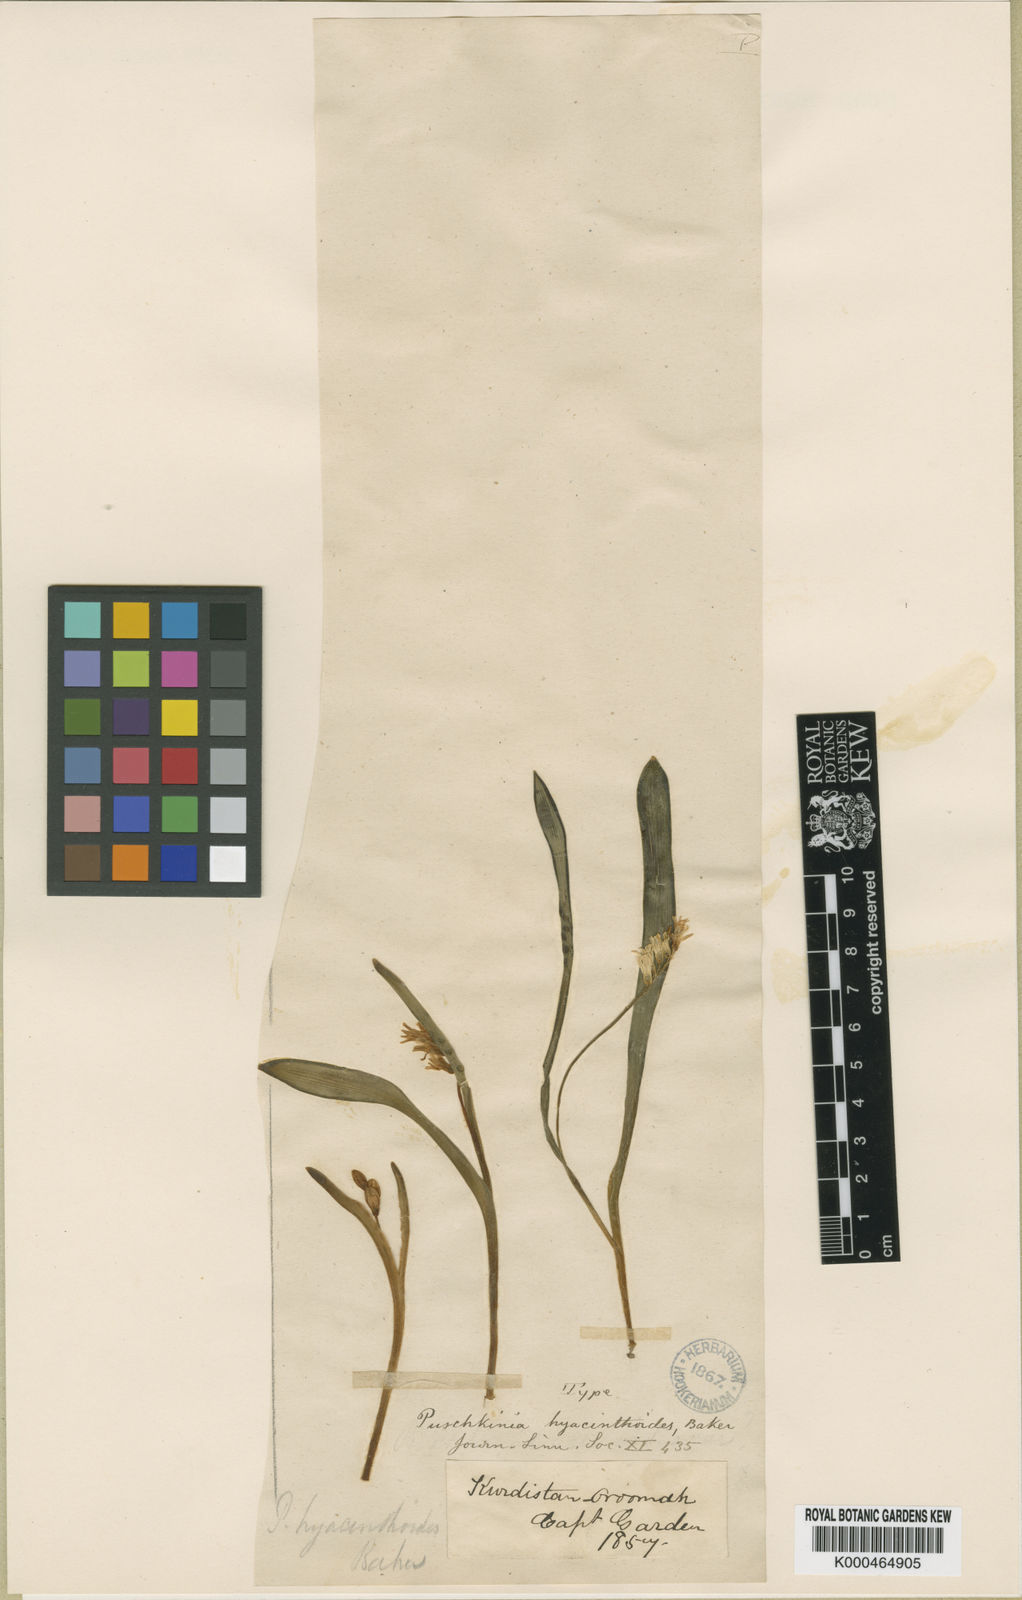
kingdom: Plantae
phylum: Tracheophyta
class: Liliopsida
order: Asparagales
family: Asparagaceae
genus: Puschkinia
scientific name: Puschkinia scilloides
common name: Striped squill
